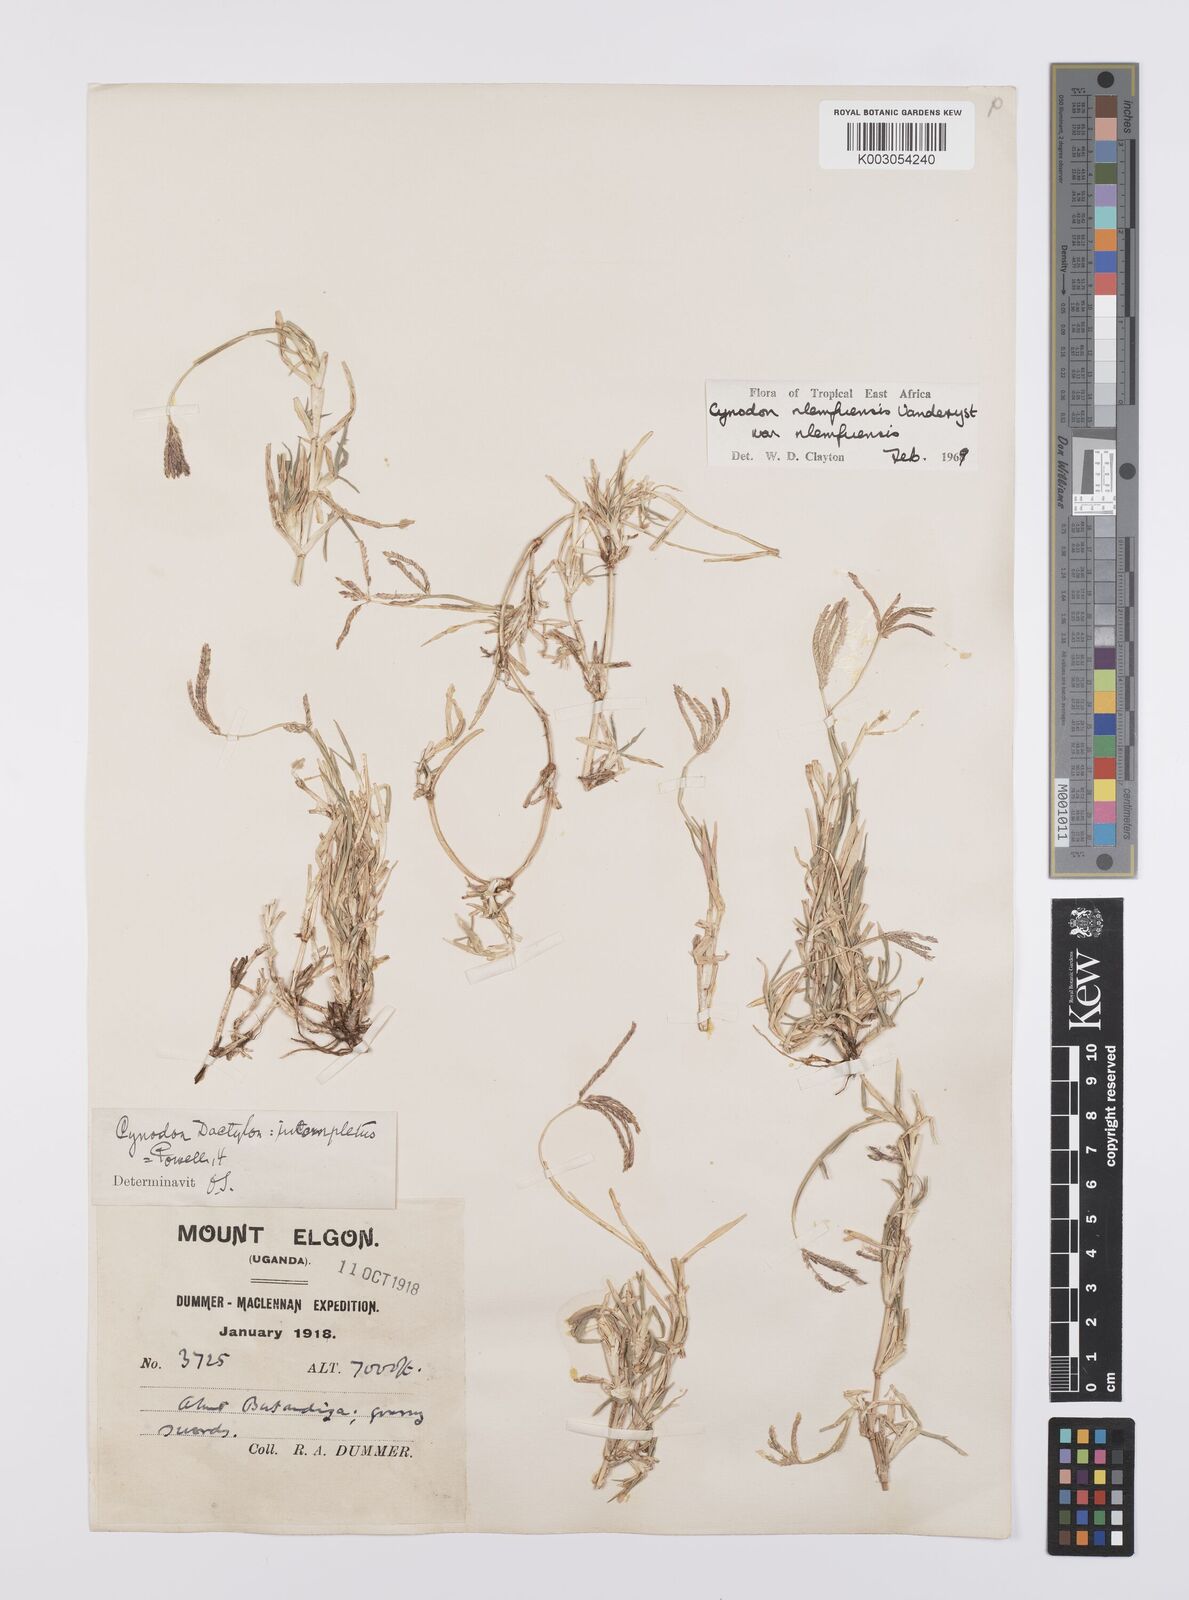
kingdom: Plantae
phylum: Tracheophyta
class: Liliopsida
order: Poales
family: Poaceae
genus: Cynodon
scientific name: Cynodon nlemfuensis
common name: African bermudagrass
